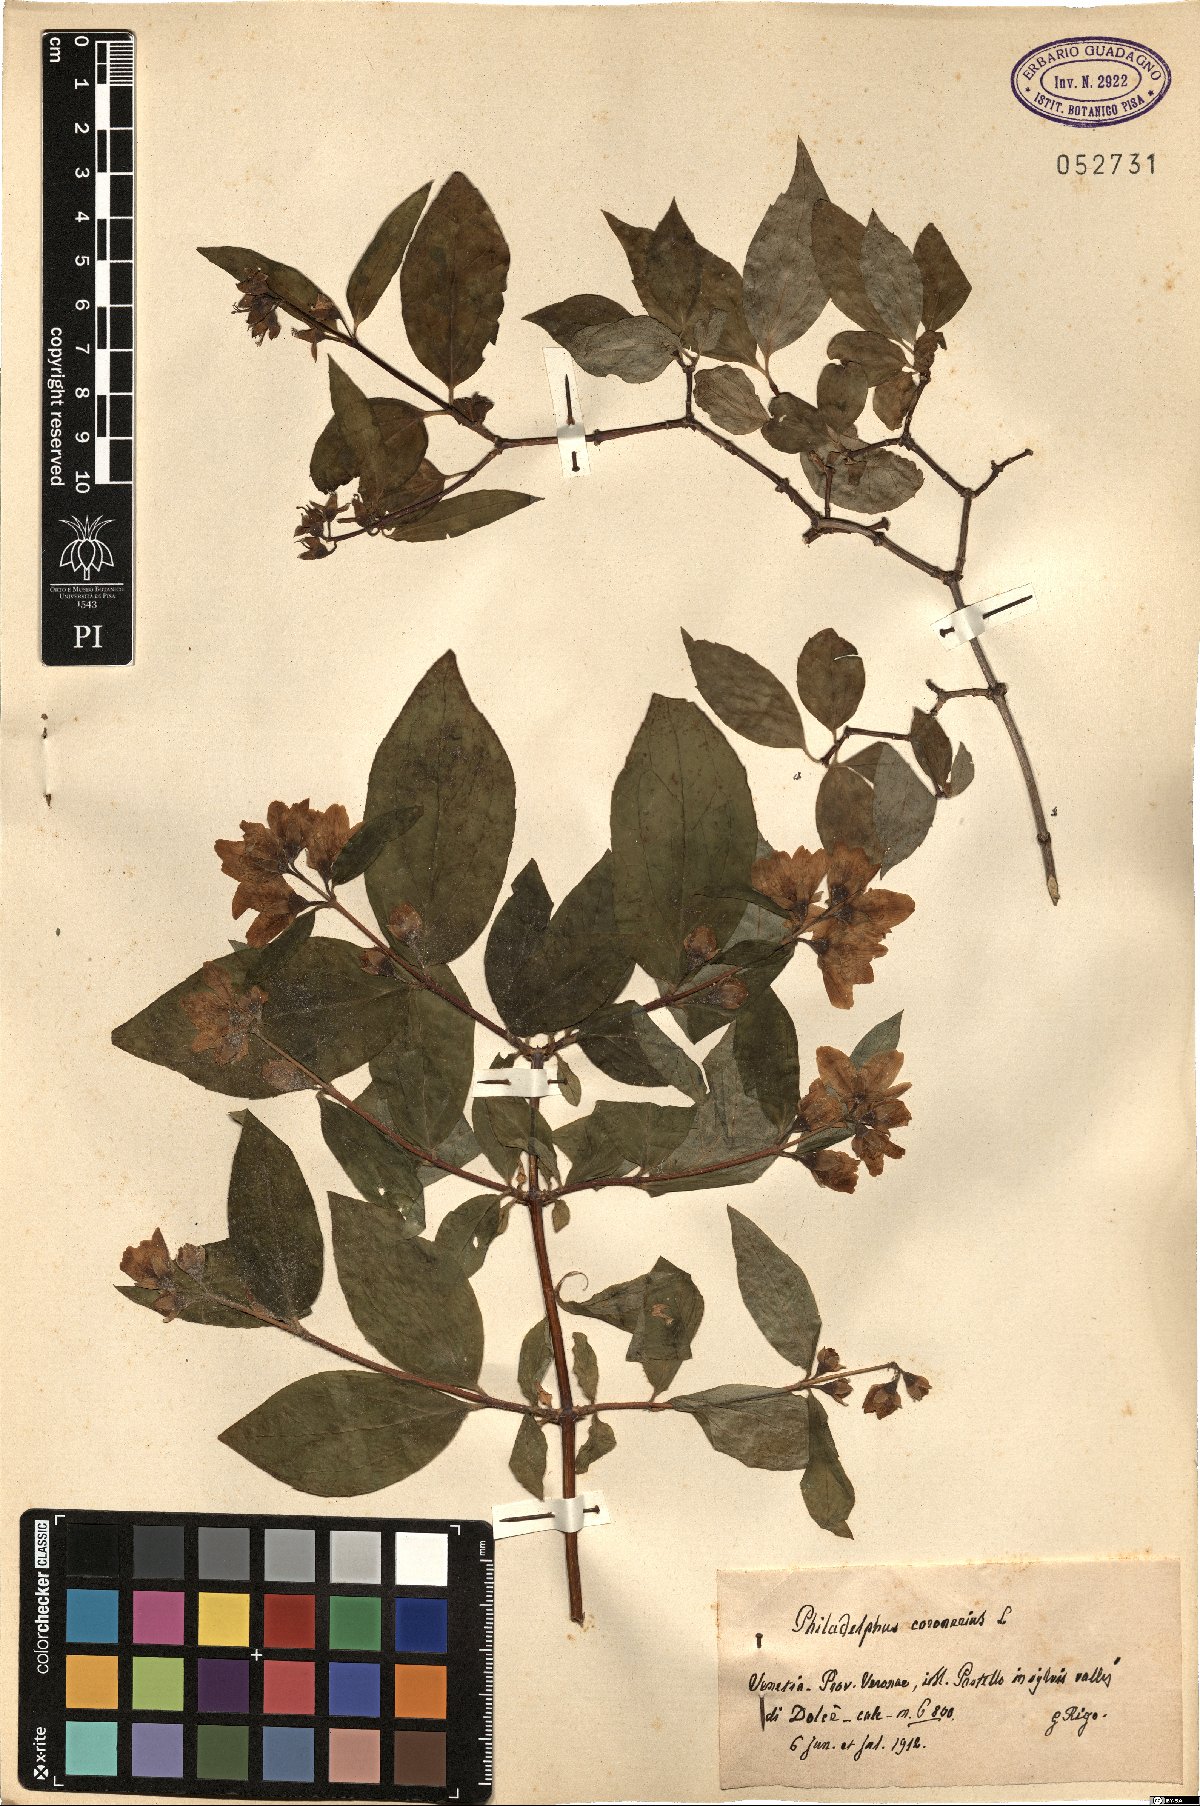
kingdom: Plantae
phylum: Tracheophyta
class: Magnoliopsida
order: Cornales
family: Hydrangeaceae
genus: Philadelphus
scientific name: Philadelphus coronarius
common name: Mock orange
